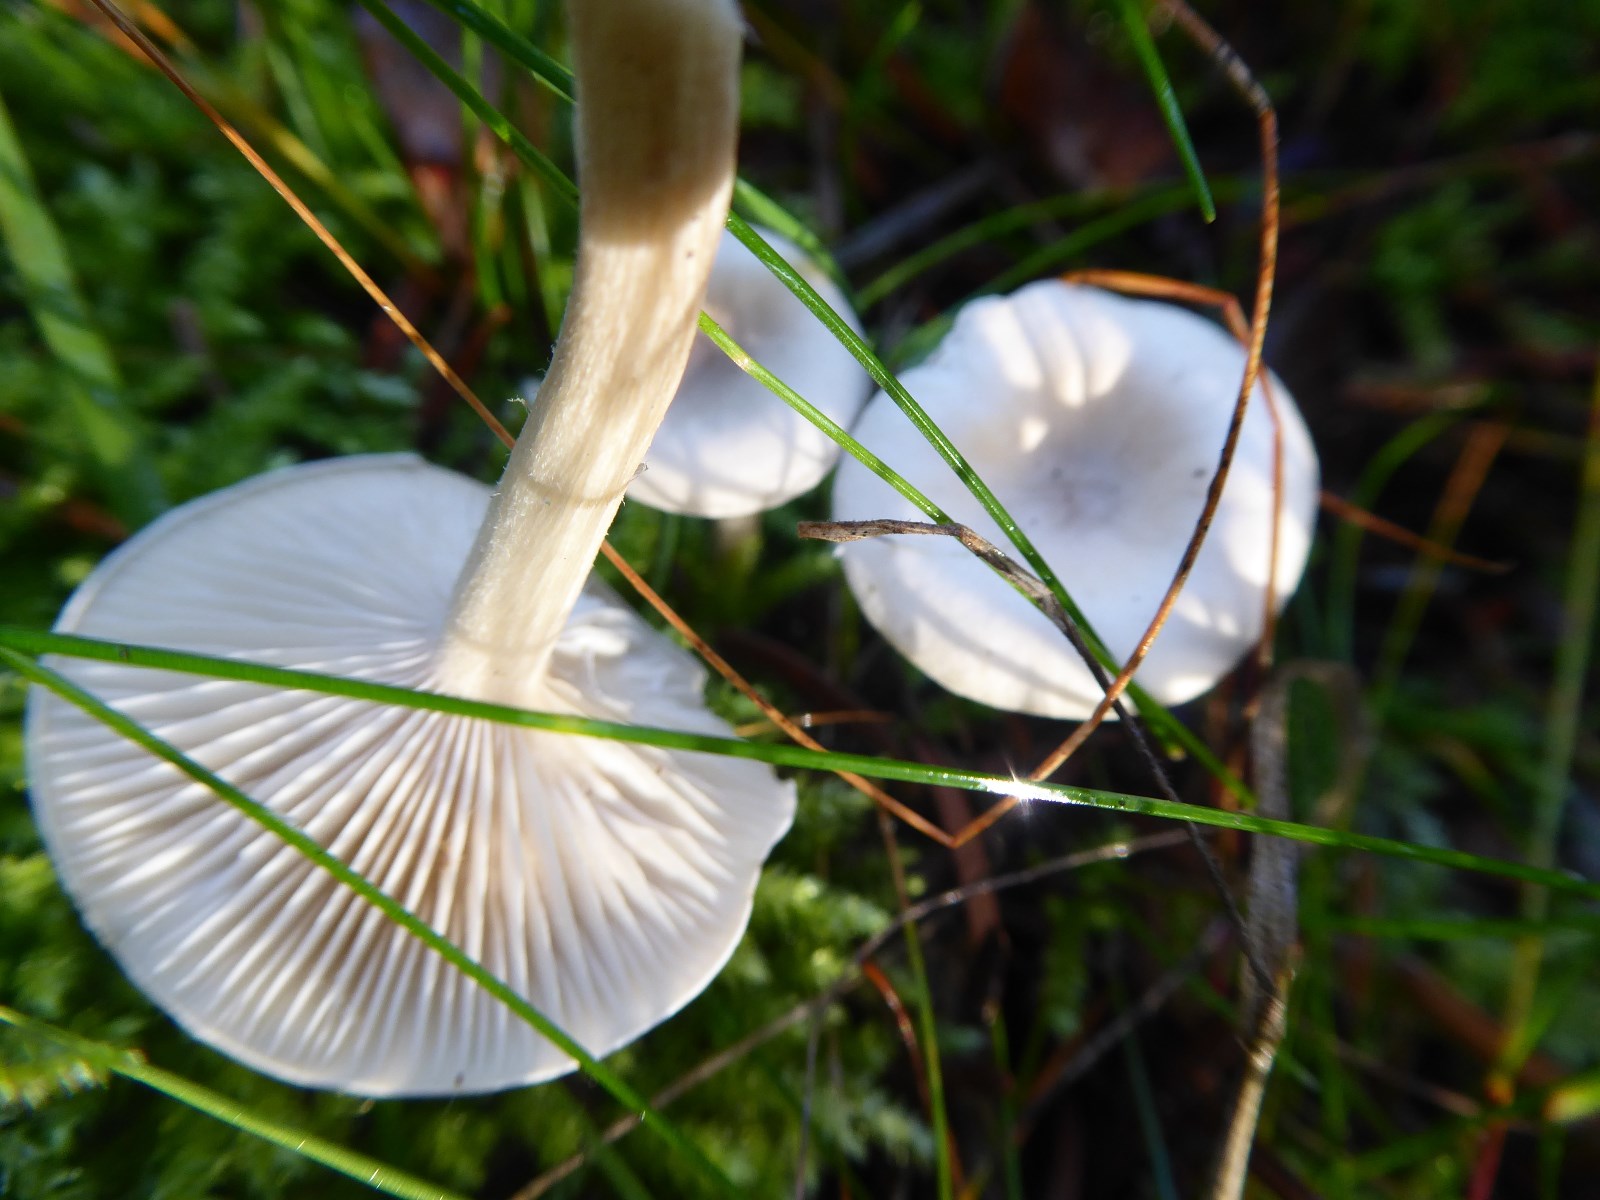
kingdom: Fungi
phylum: Basidiomycota
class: Agaricomycetes
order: Agaricales
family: Tricholomataceae
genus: Clitocybe
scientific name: Clitocybe fragrans
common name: vellugtende tragthat
